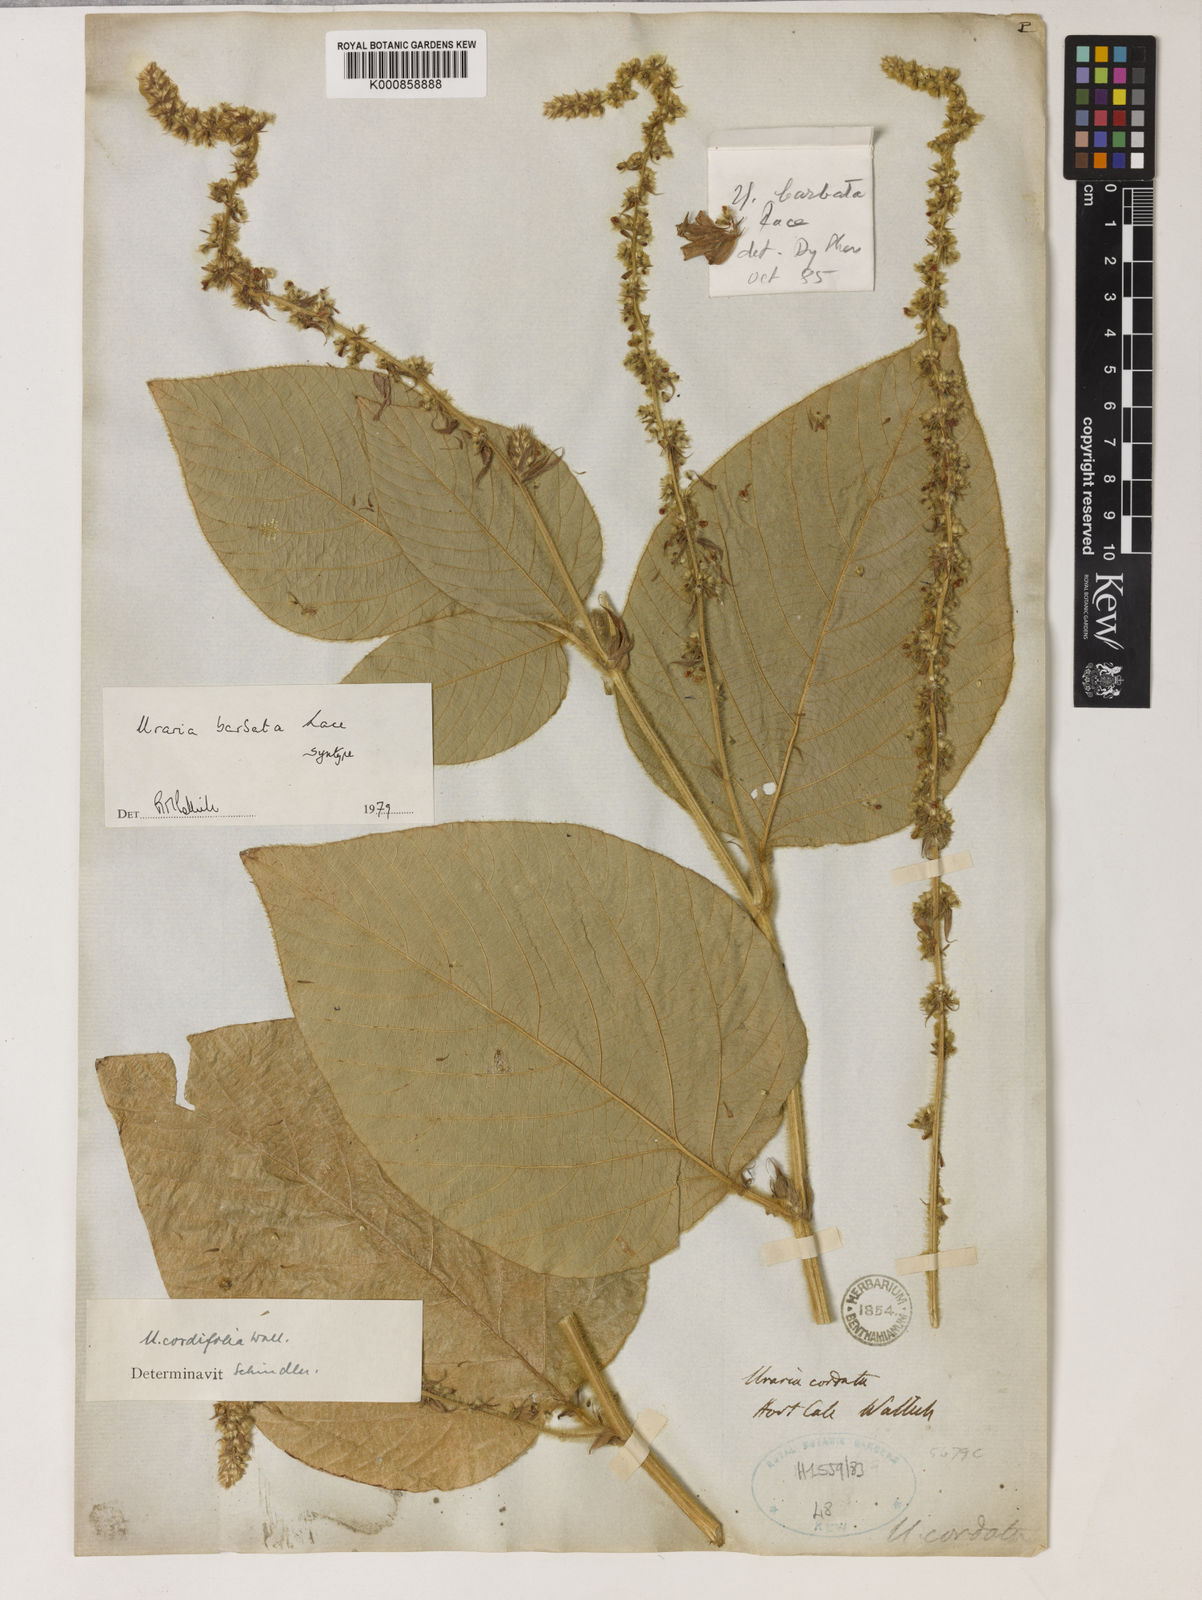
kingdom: Plantae
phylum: Tracheophyta
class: Magnoliopsida
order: Fabales
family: Fabaceae
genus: Sohmaea
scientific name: Sohmaea barbaticaulis
